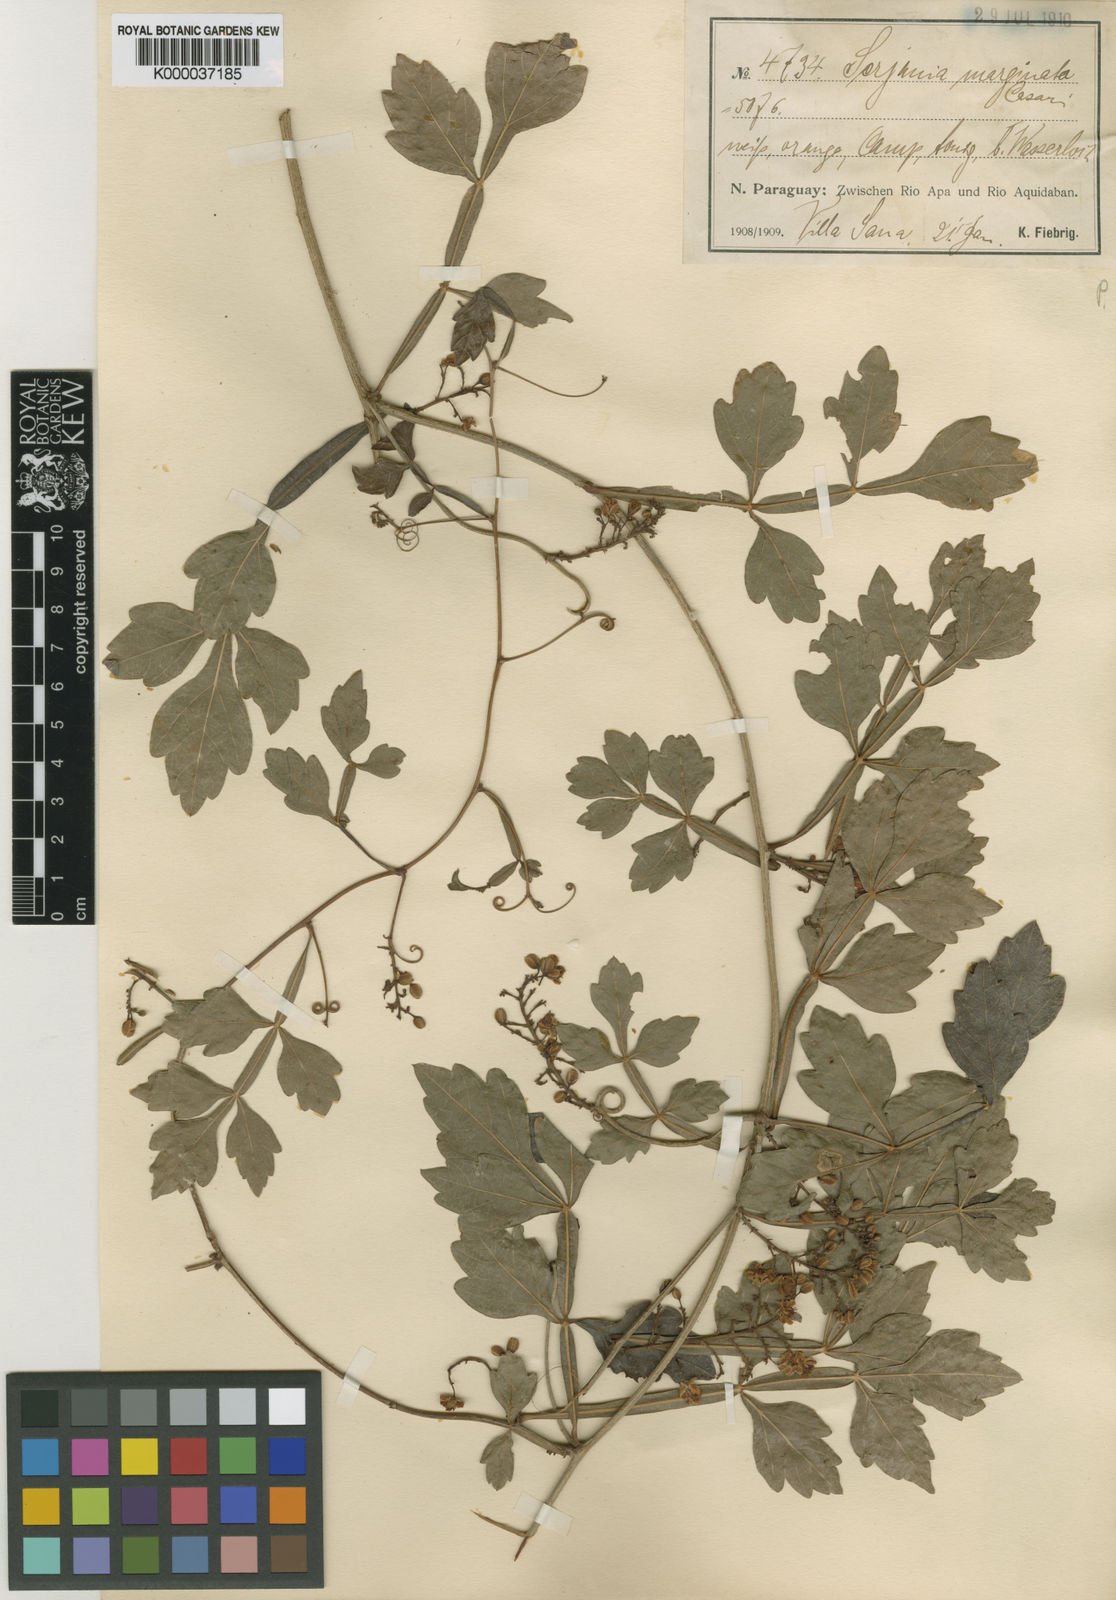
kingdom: Plantae
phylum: Tracheophyta
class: Magnoliopsida
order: Sapindales
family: Sapindaceae
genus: Serjania
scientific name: Serjania marginata
